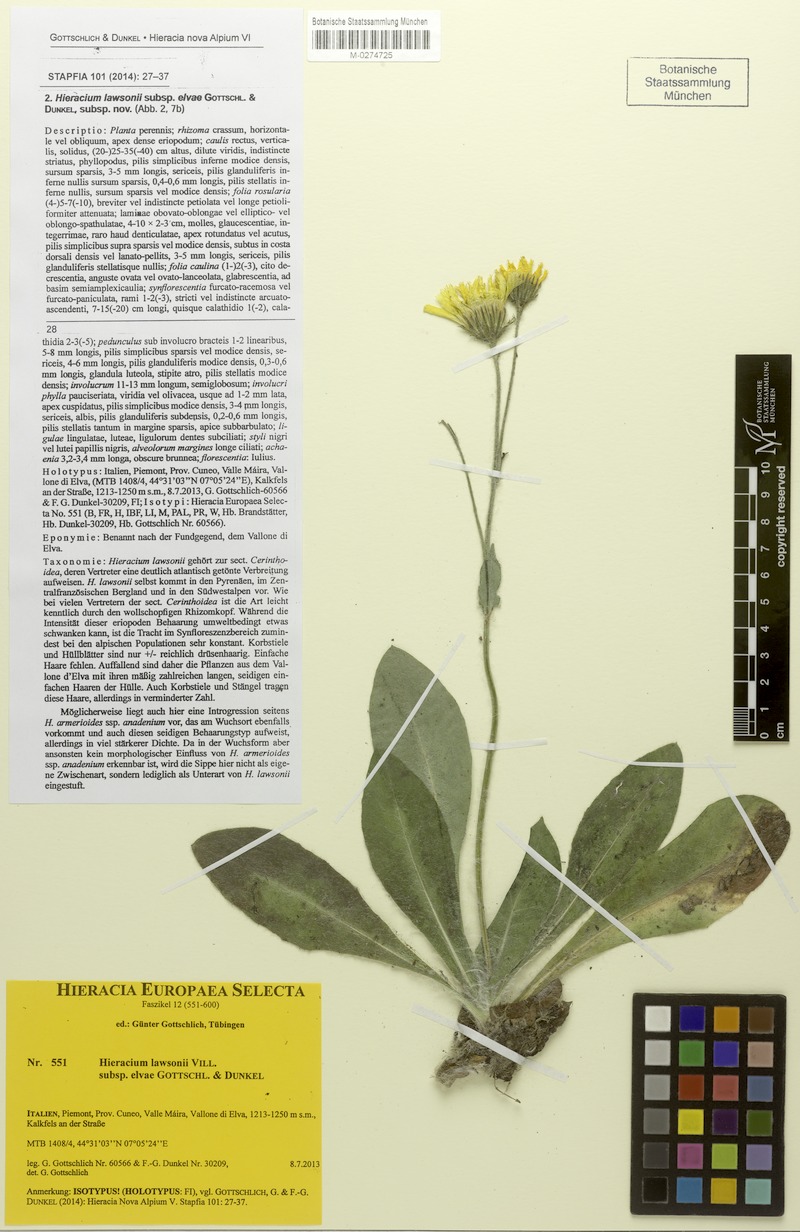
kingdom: Plantae
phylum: Tracheophyta
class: Magnoliopsida
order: Asterales
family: Asteraceae
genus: Hieracium
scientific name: Hieracium lawsonii
